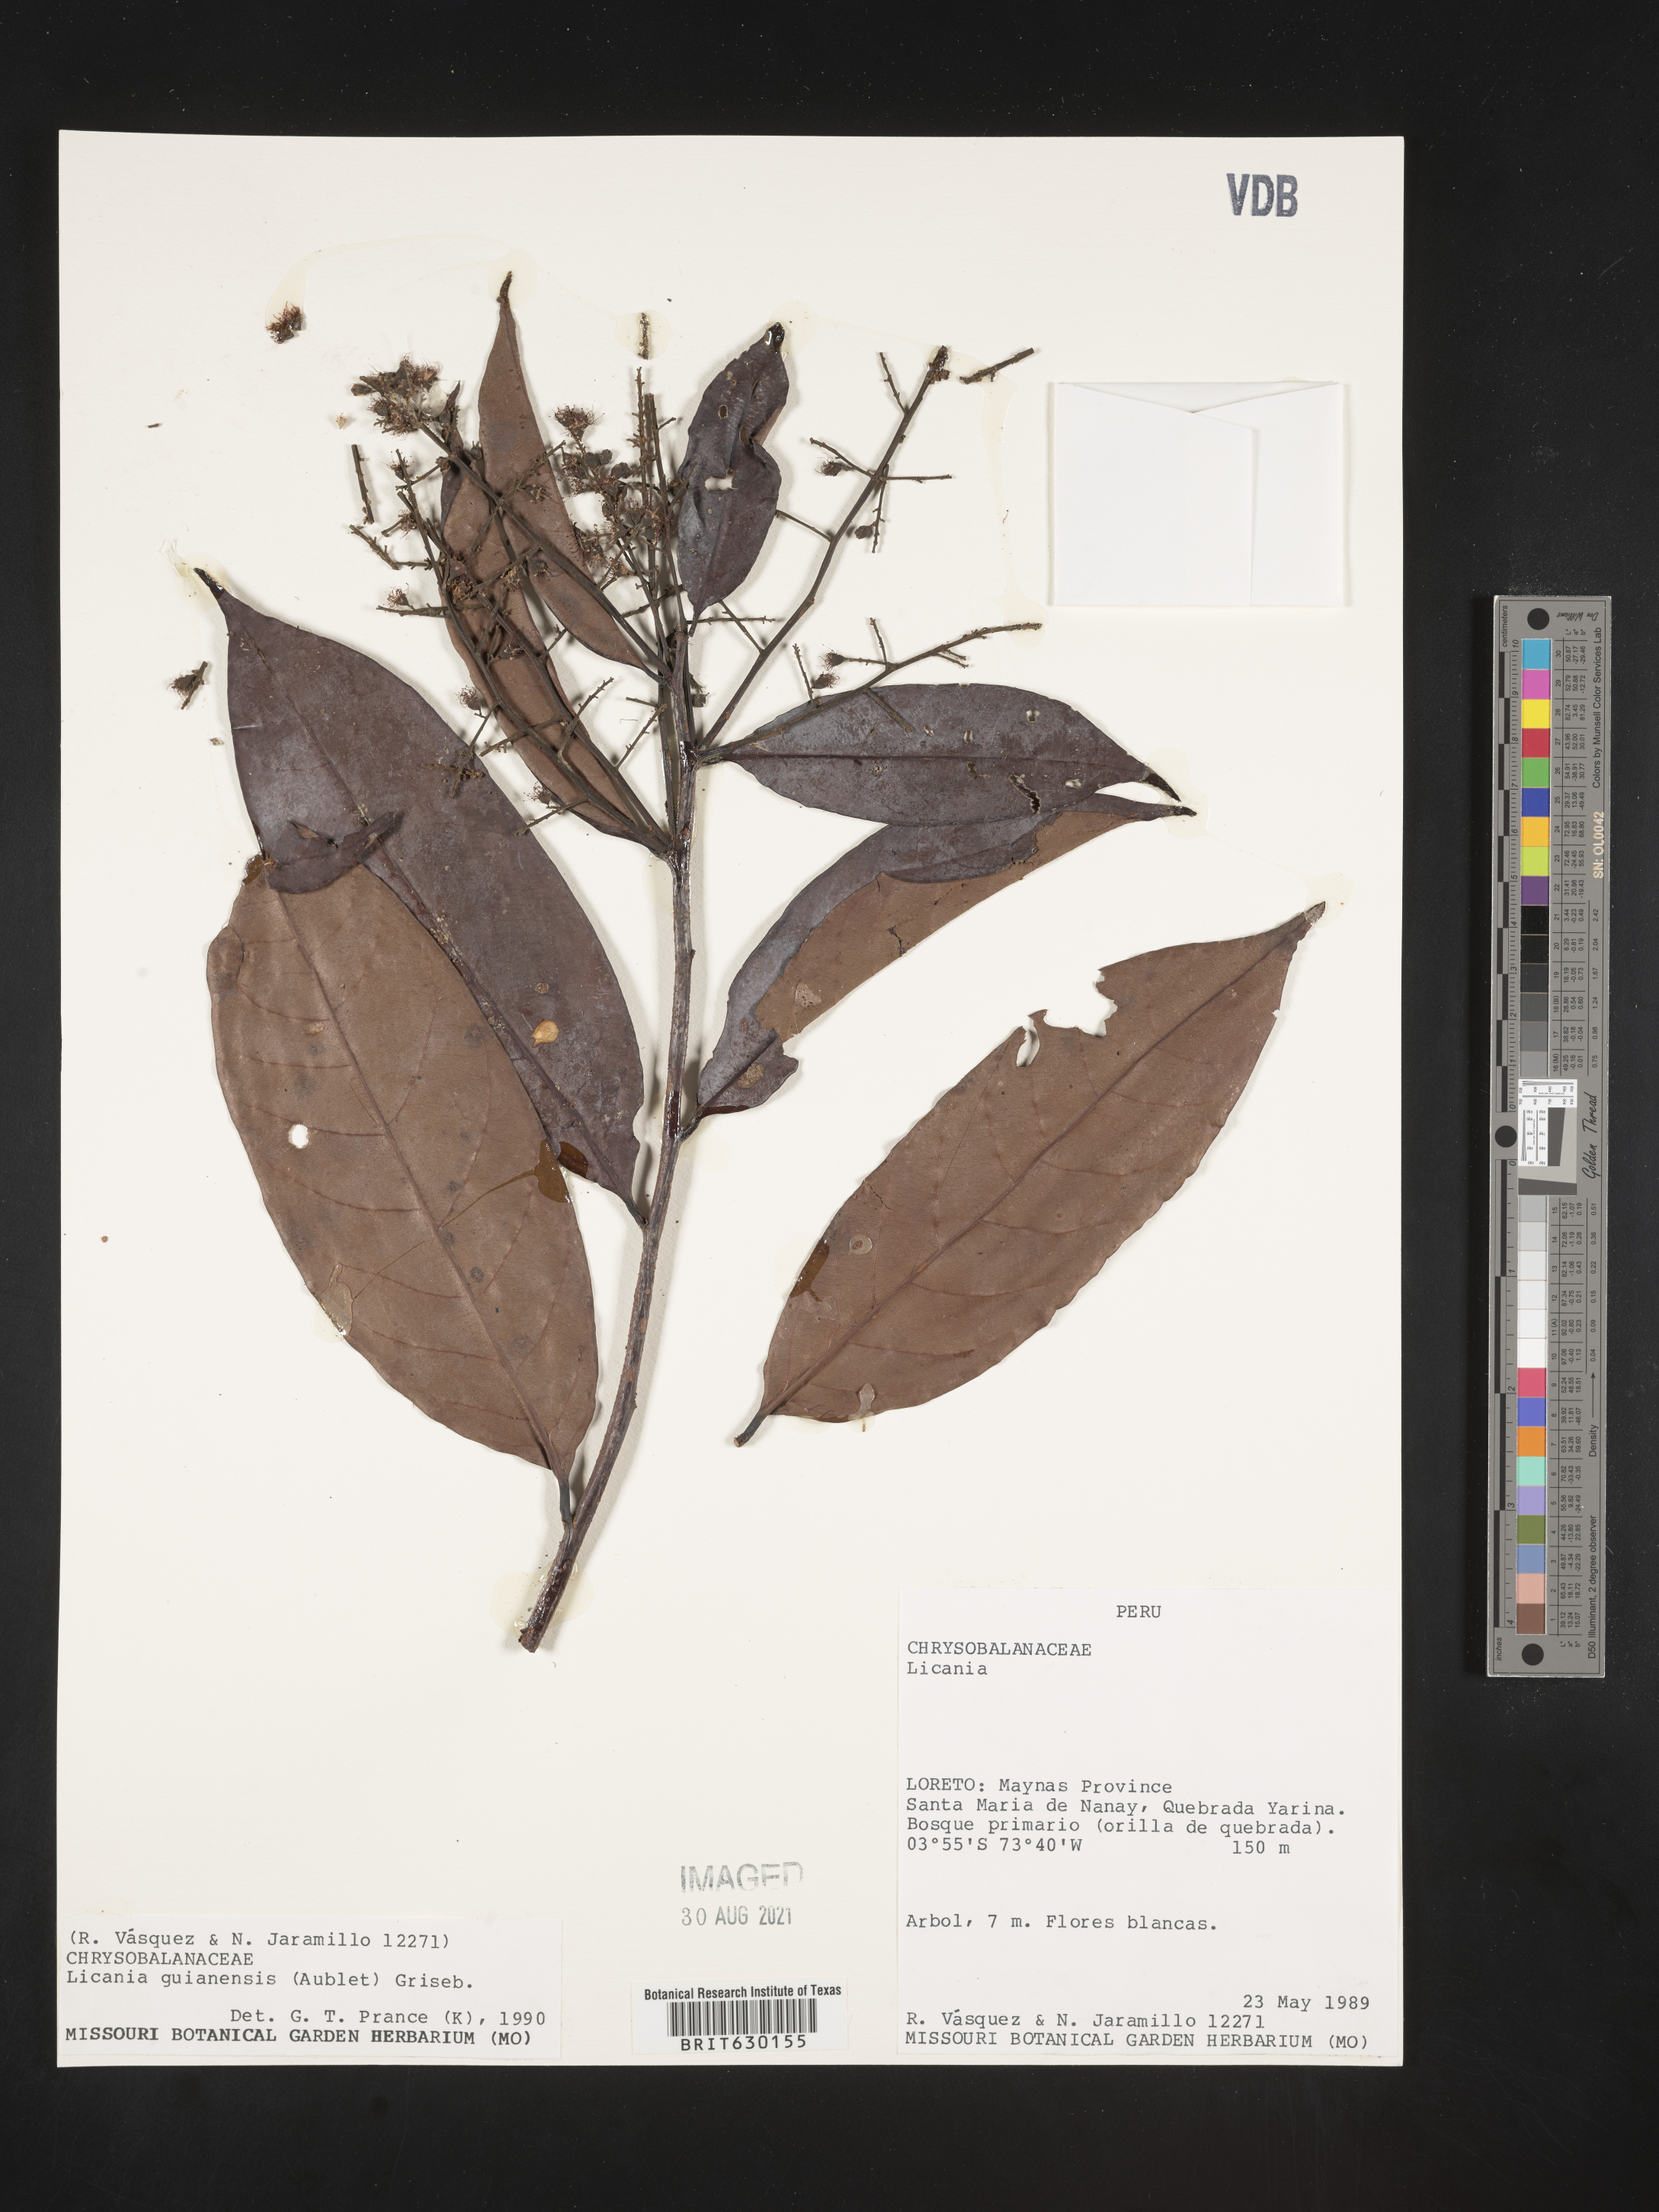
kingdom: Plantae
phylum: Tracheophyta
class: Magnoliopsida
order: Malpighiales
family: Chrysobalanaceae
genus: Moquilea
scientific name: Moquilea guianensis
